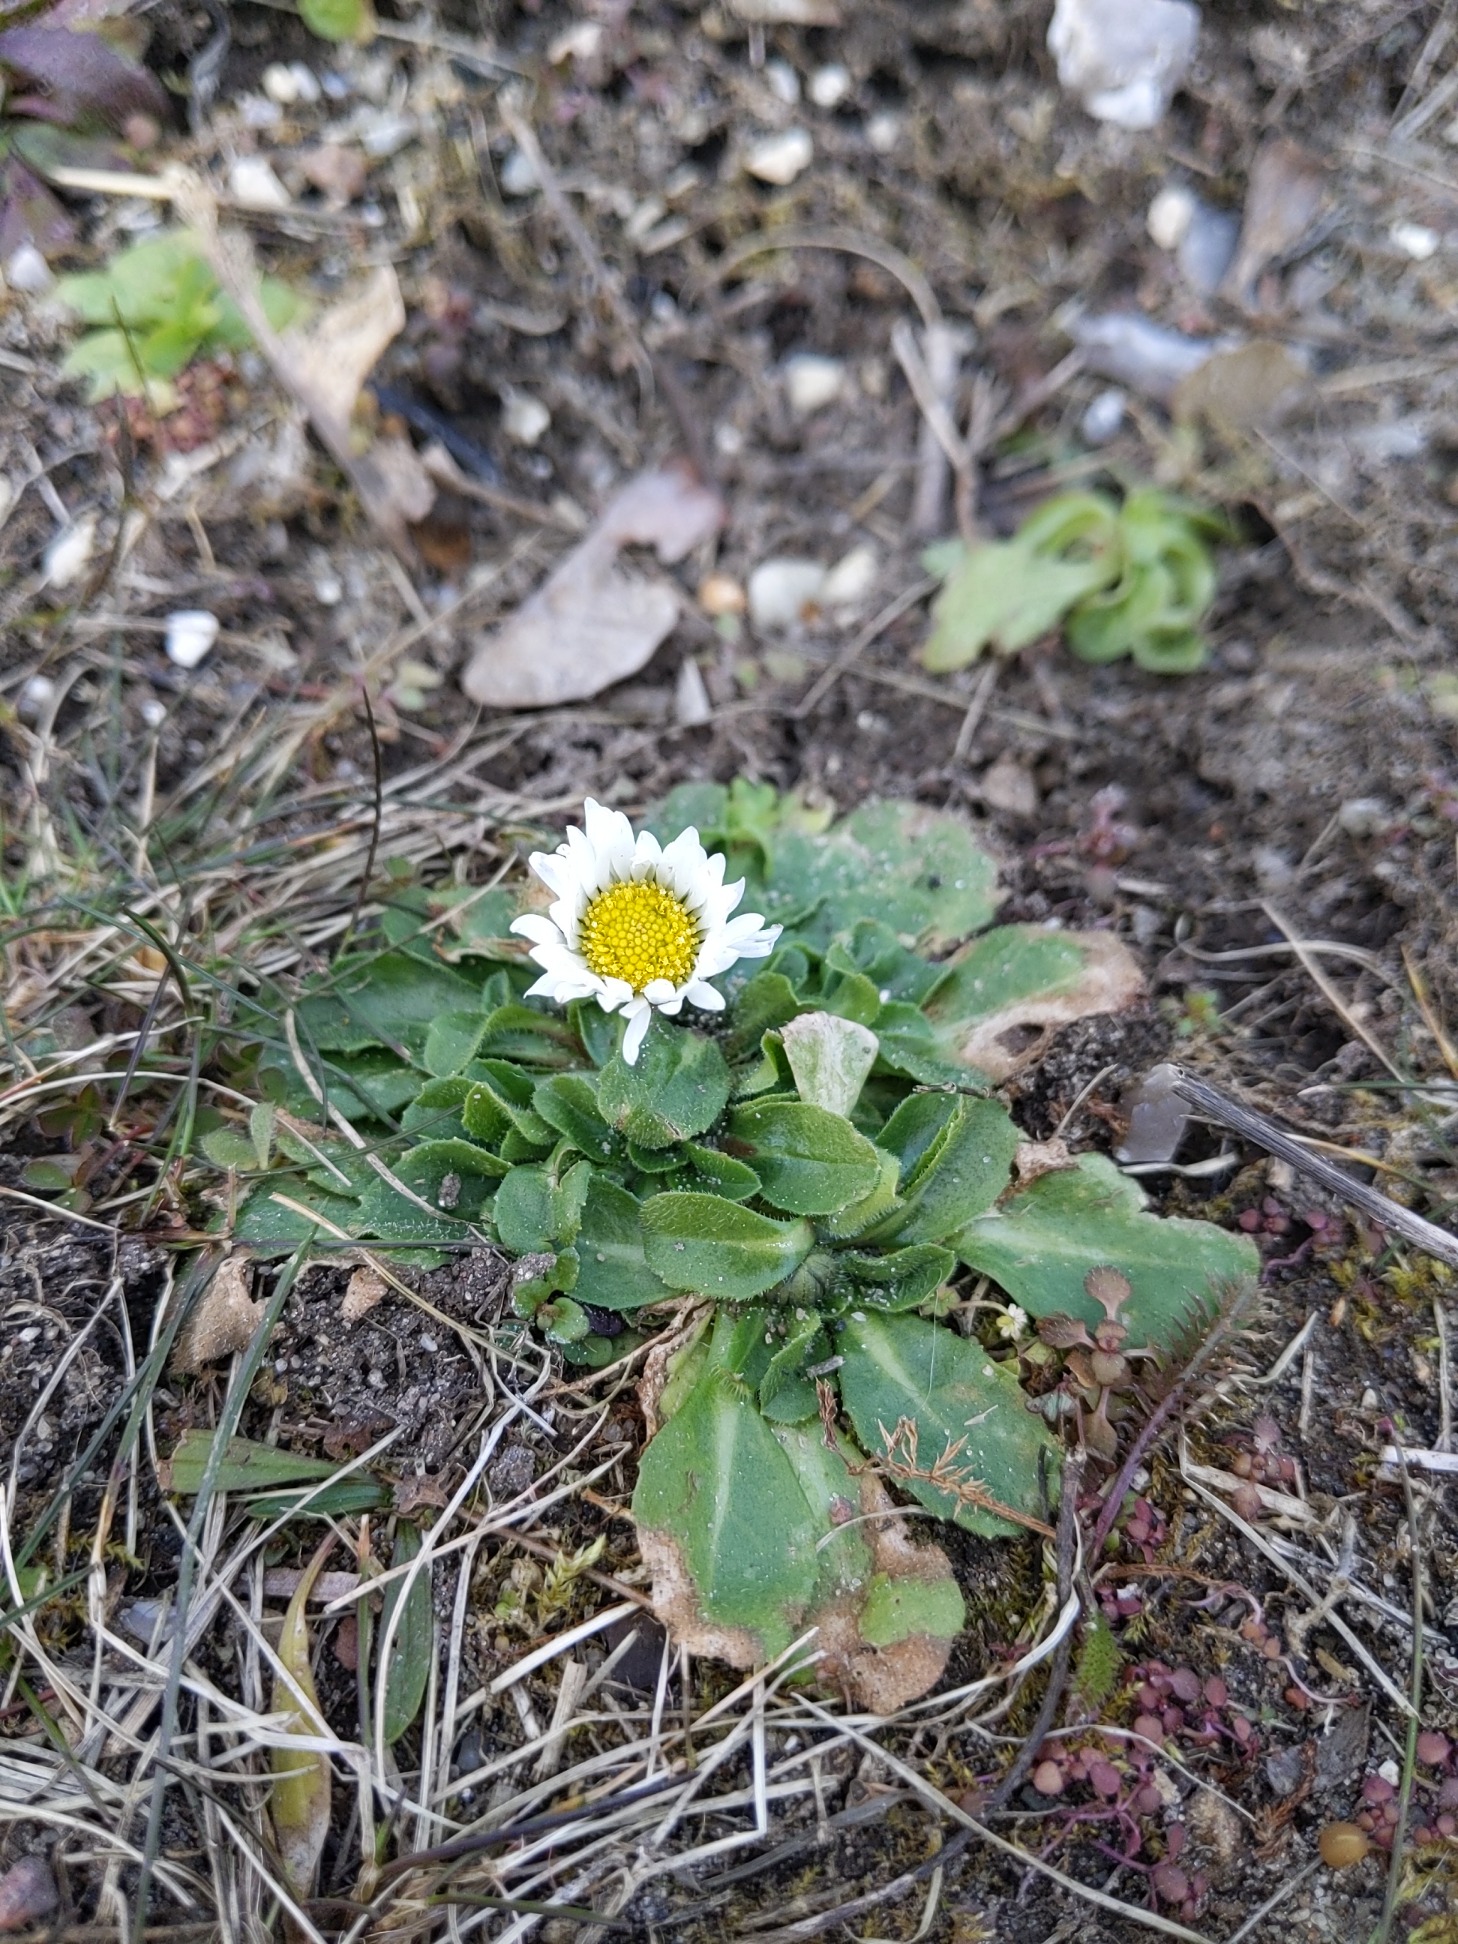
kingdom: Plantae
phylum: Tracheophyta
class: Magnoliopsida
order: Asterales
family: Asteraceae
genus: Bellis
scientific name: Bellis perennis
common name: Tusindfryd
